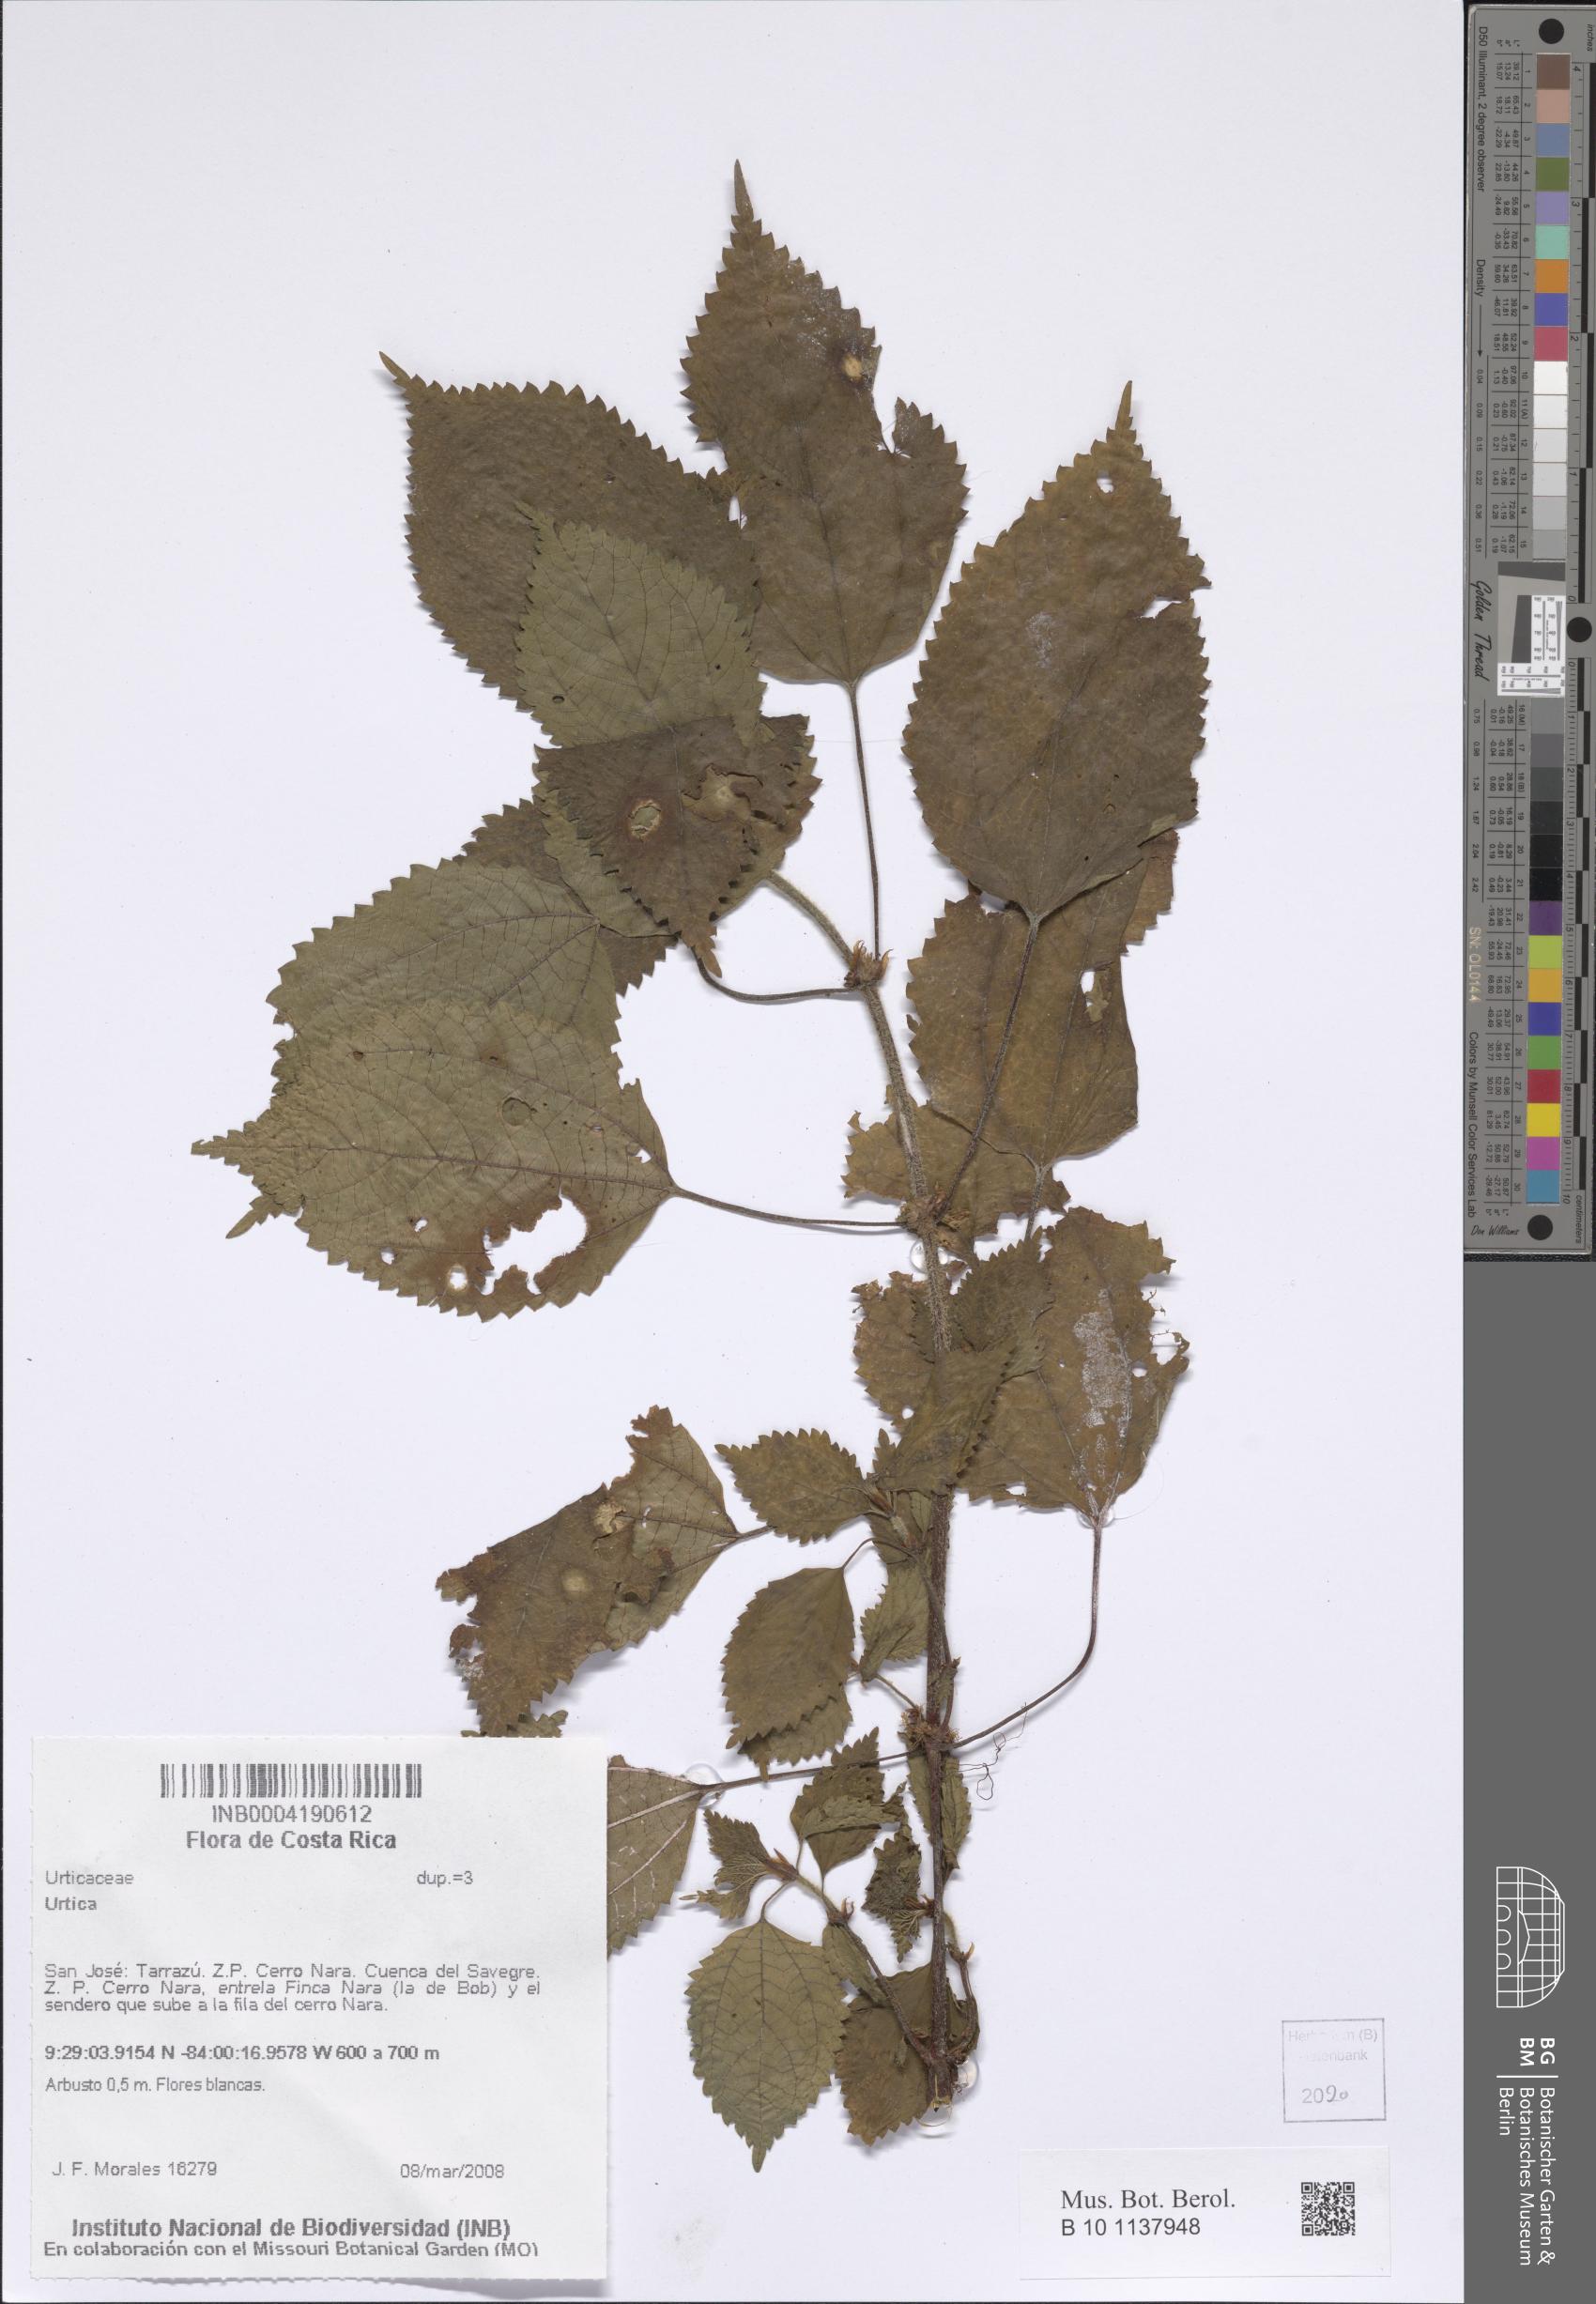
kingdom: Plantae
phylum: Tracheophyta
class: Magnoliopsida
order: Rosales
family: Urticaceae
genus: Urtica
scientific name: Urtica
